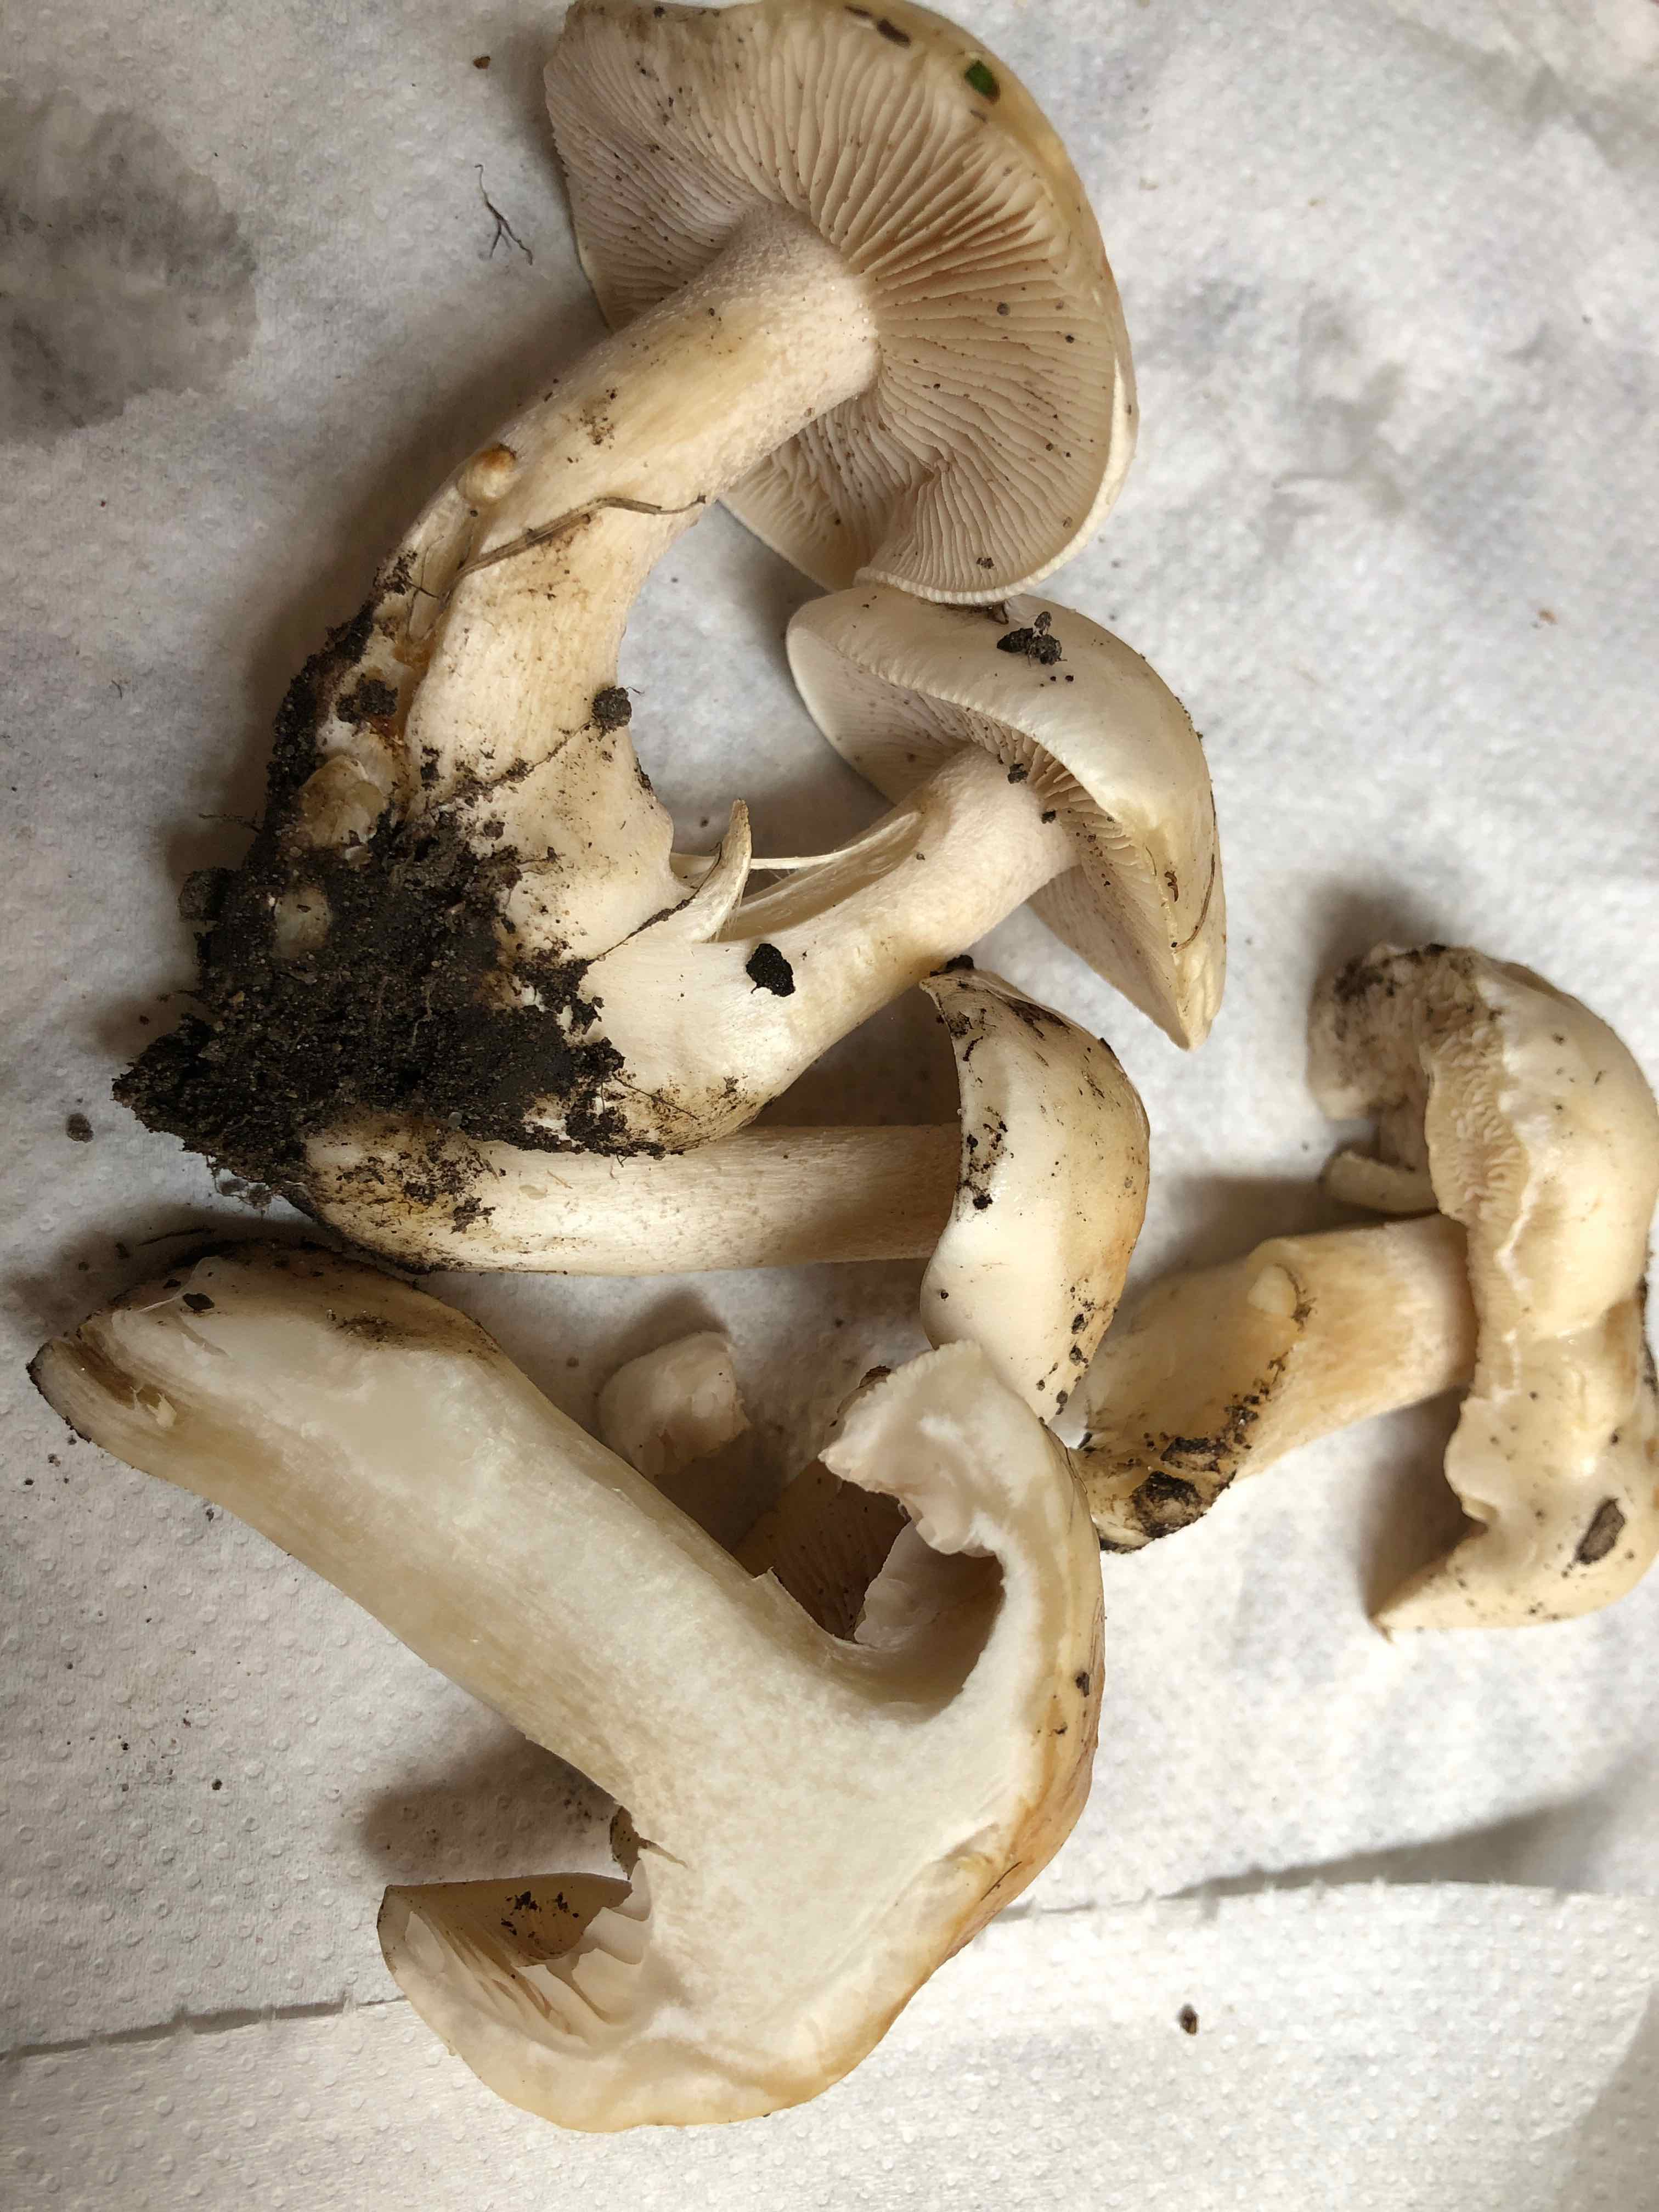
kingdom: Fungi
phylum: Basidiomycota
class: Agaricomycetes
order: Agaricales
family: Hymenogastraceae
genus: Hebeloma
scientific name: Hebeloma crustuliniforme
